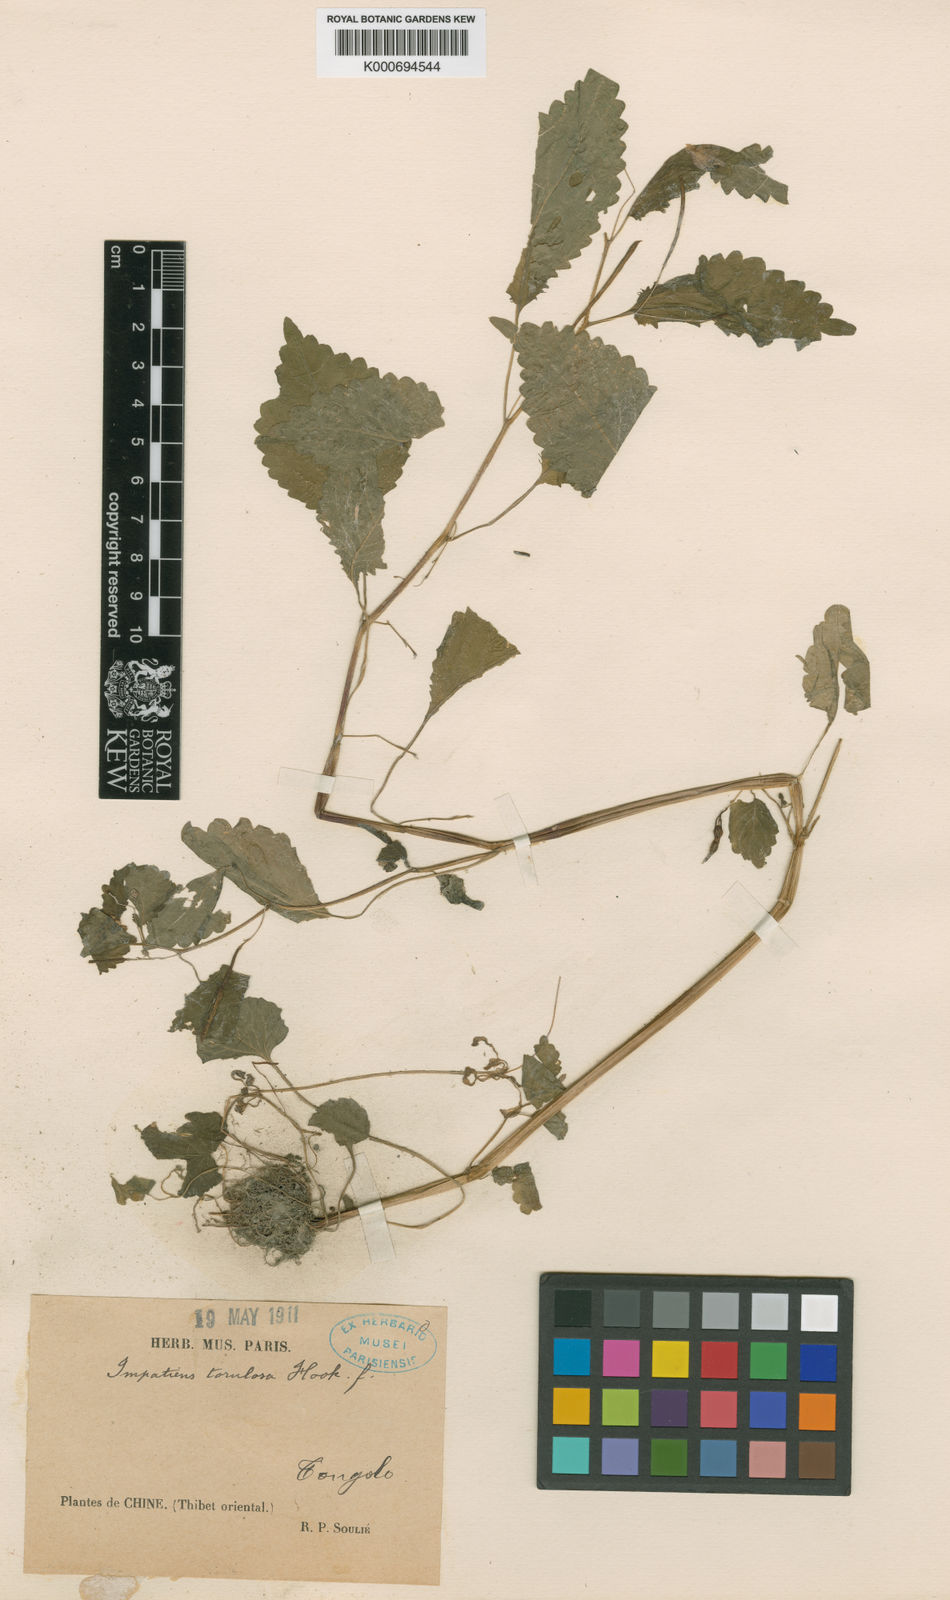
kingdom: Plantae
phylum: Tracheophyta
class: Magnoliopsida
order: Ericales
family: Balsaminaceae
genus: Impatiens
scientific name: Impatiens torulosa
